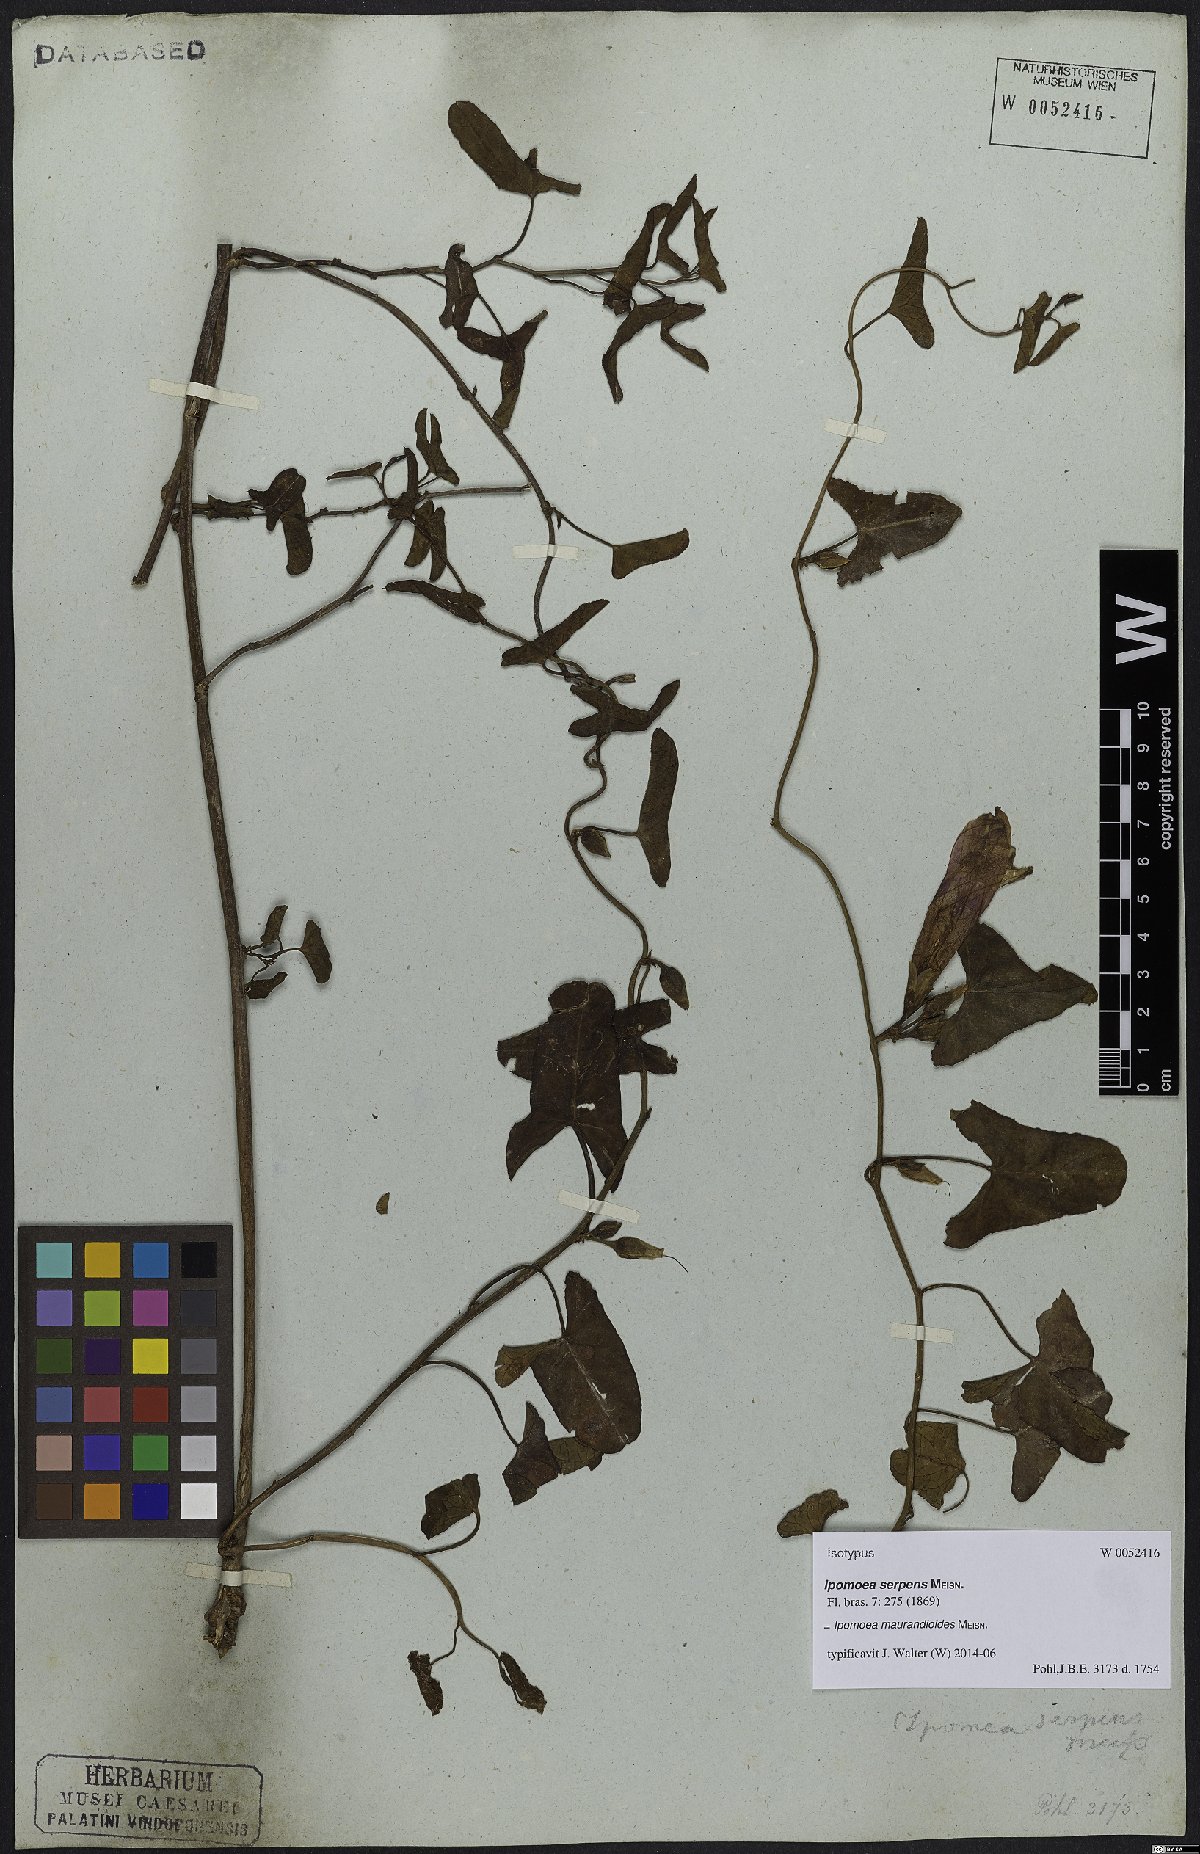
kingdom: Plantae
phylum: Tracheophyta
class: Magnoliopsida
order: Solanales
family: Convolvulaceae
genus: Ipomoea
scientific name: Ipomoea maurandioides
